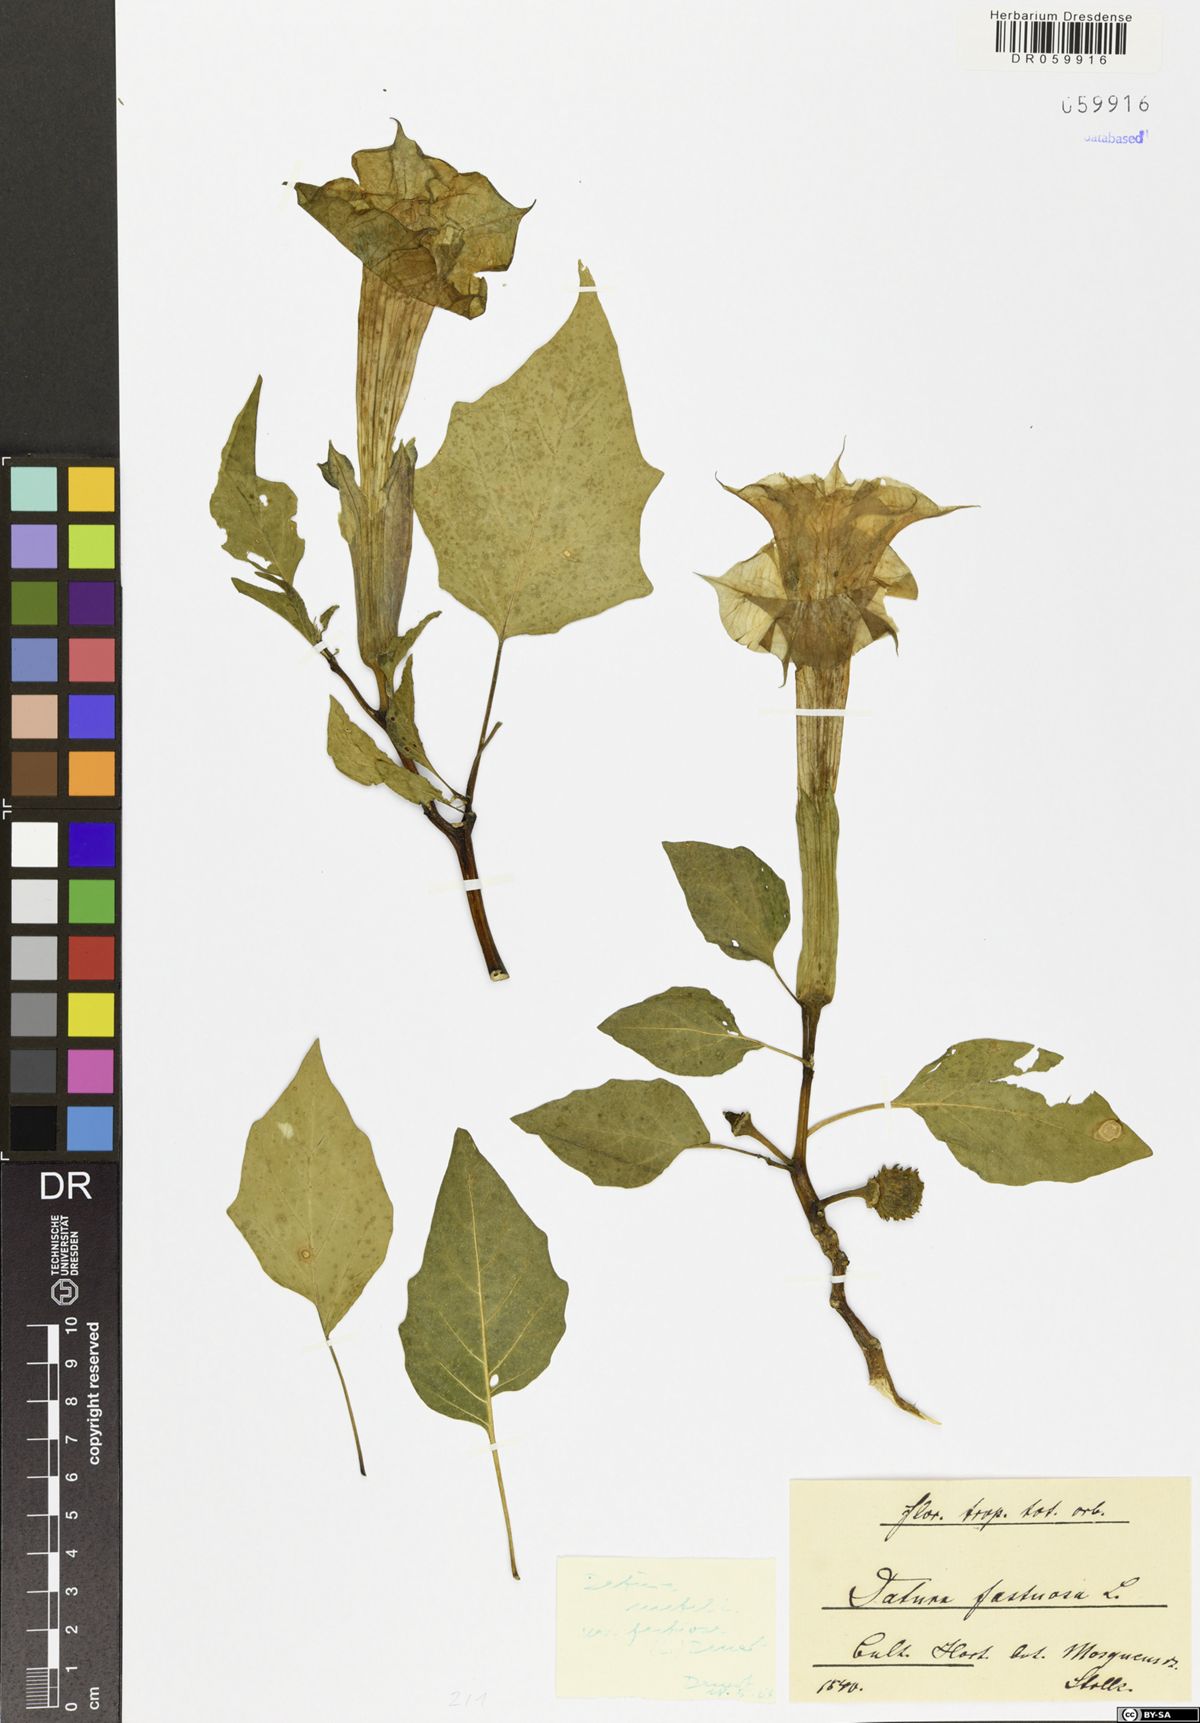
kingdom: Plantae
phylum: Tracheophyta
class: Magnoliopsida
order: Solanales
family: Solanaceae
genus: Datura
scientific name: Datura metel
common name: Jimsonweed
